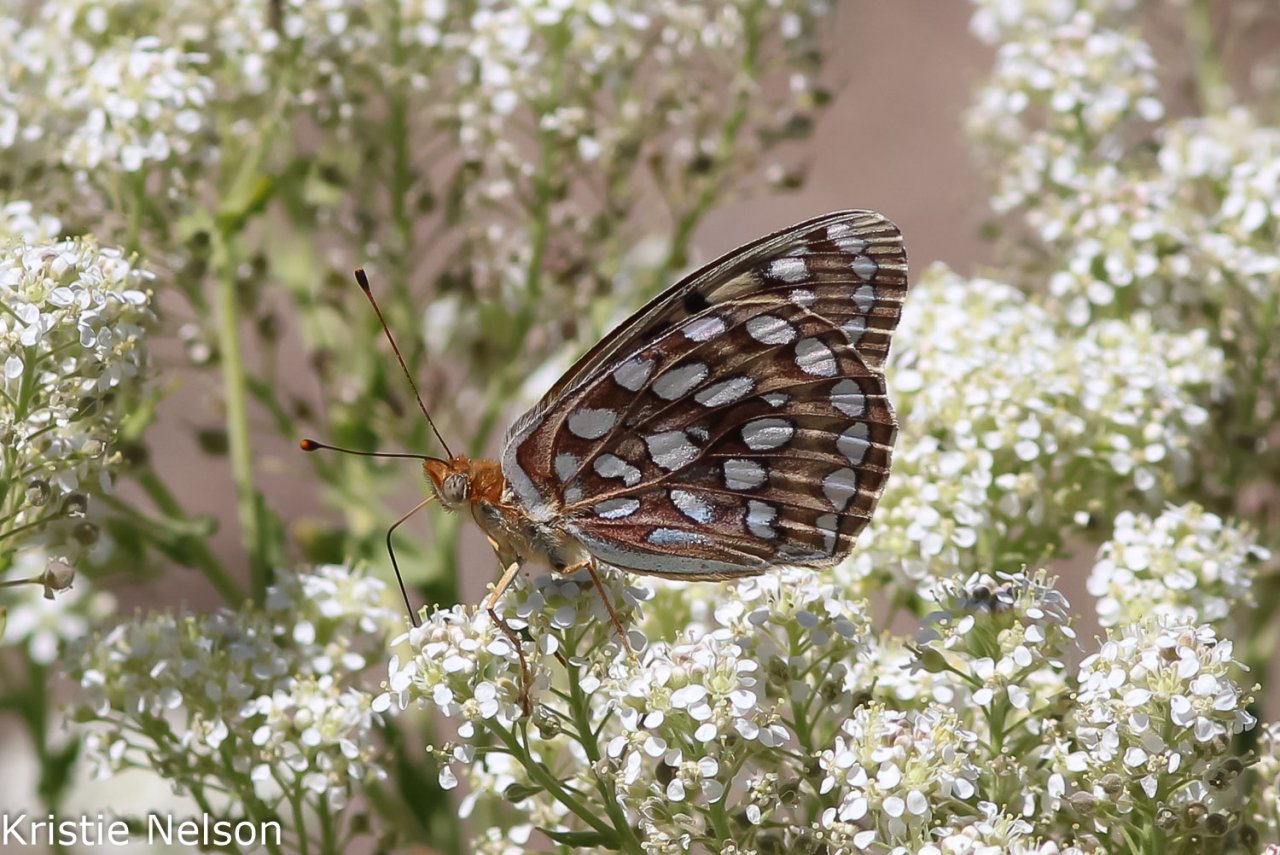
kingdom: Animalia
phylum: Arthropoda
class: Insecta
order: Lepidoptera
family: Nymphalidae
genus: Speyeria
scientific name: Speyeria coronis
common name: Coronis Fritillary
